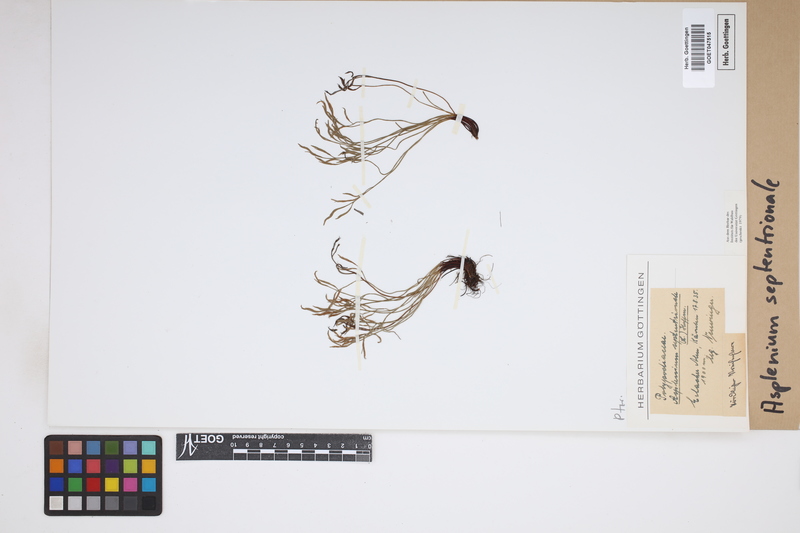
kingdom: Plantae
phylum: Tracheophyta
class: Polypodiopsida
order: Polypodiales
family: Aspleniaceae
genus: Asplenium
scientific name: Asplenium septentrionale
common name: Forked spleenwort
